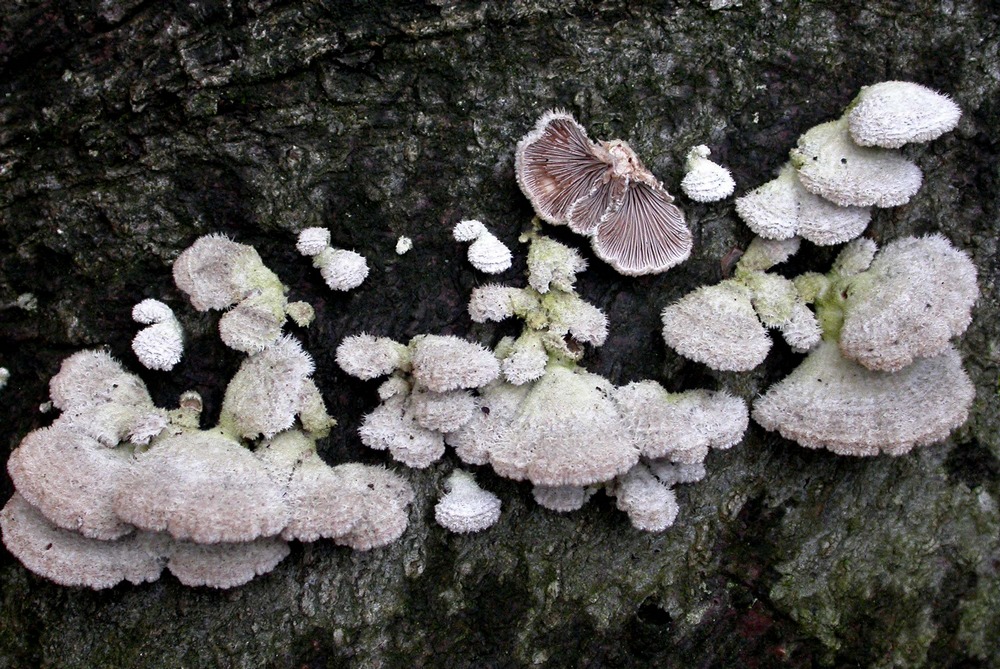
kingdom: Fungi
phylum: Basidiomycota
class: Agaricomycetes
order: Agaricales
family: Schizophyllaceae
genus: Schizophyllum
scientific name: Schizophyllum commune
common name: kløvblad
